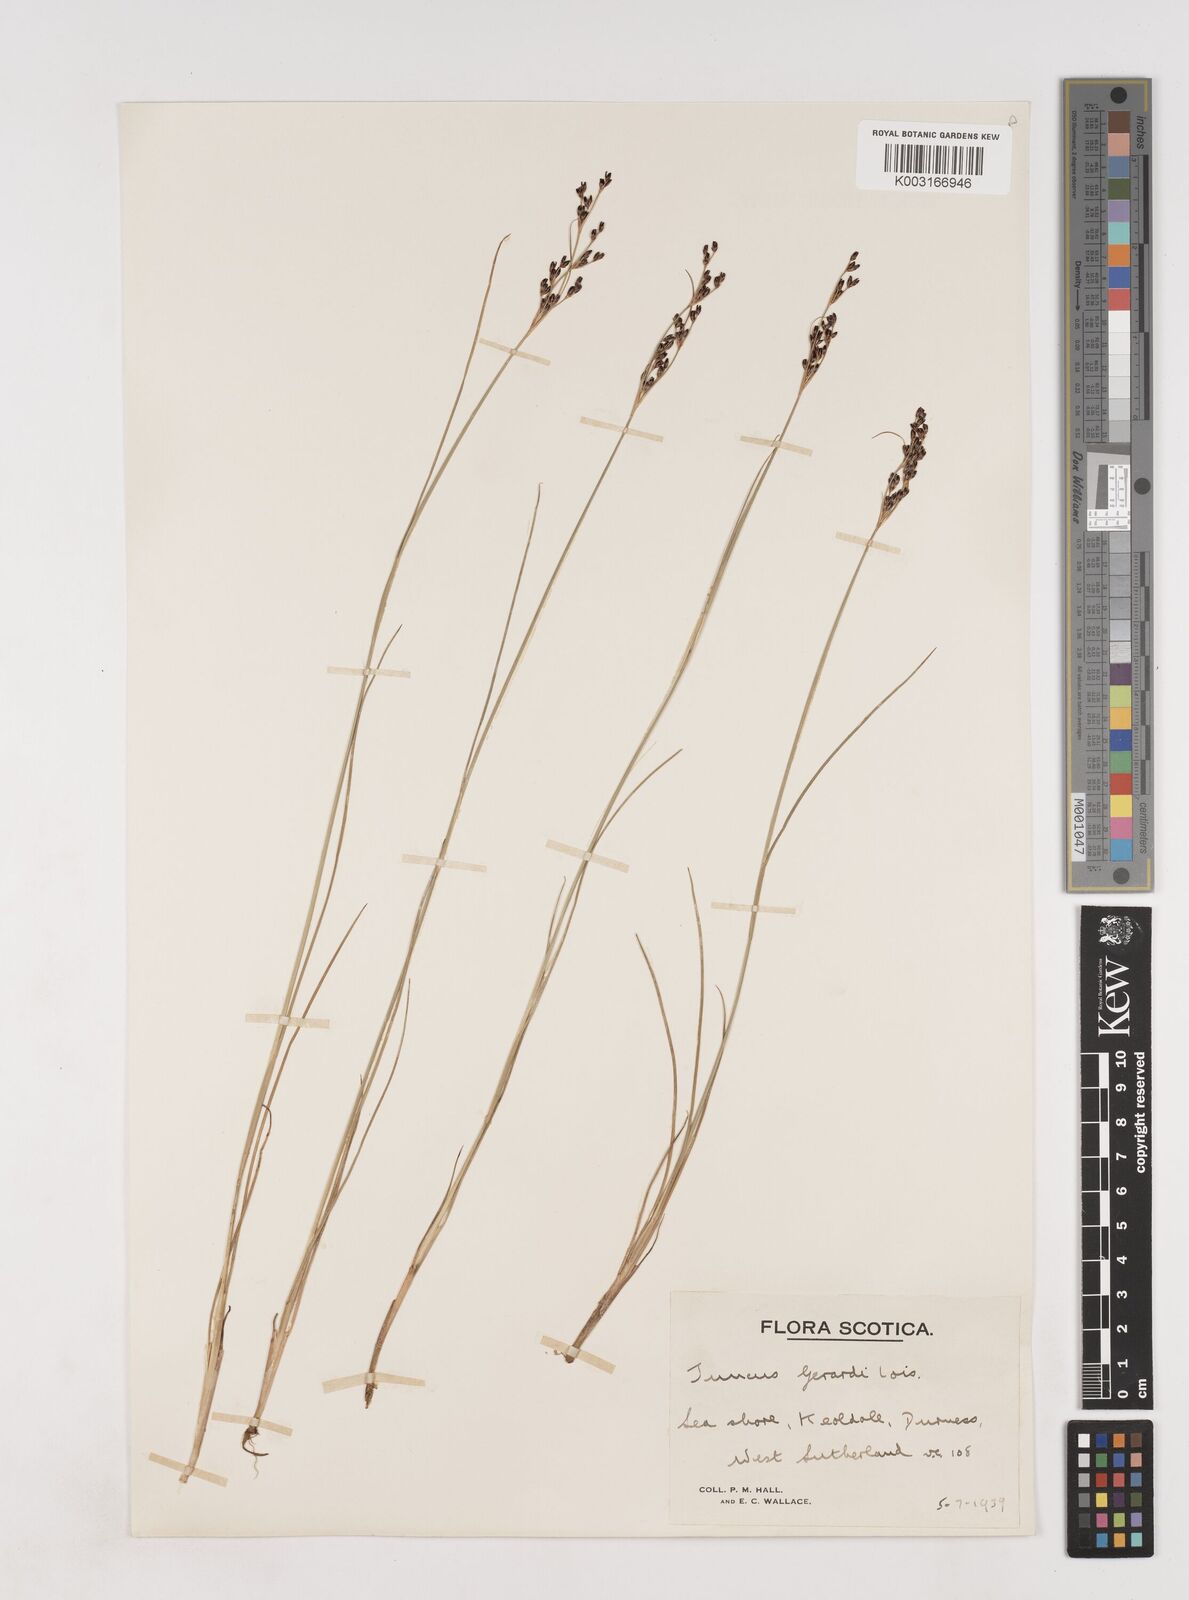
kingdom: Plantae
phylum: Tracheophyta
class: Liliopsida
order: Poales
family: Juncaceae
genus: Juncus
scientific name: Juncus gerardi
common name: Saltmarsh rush
